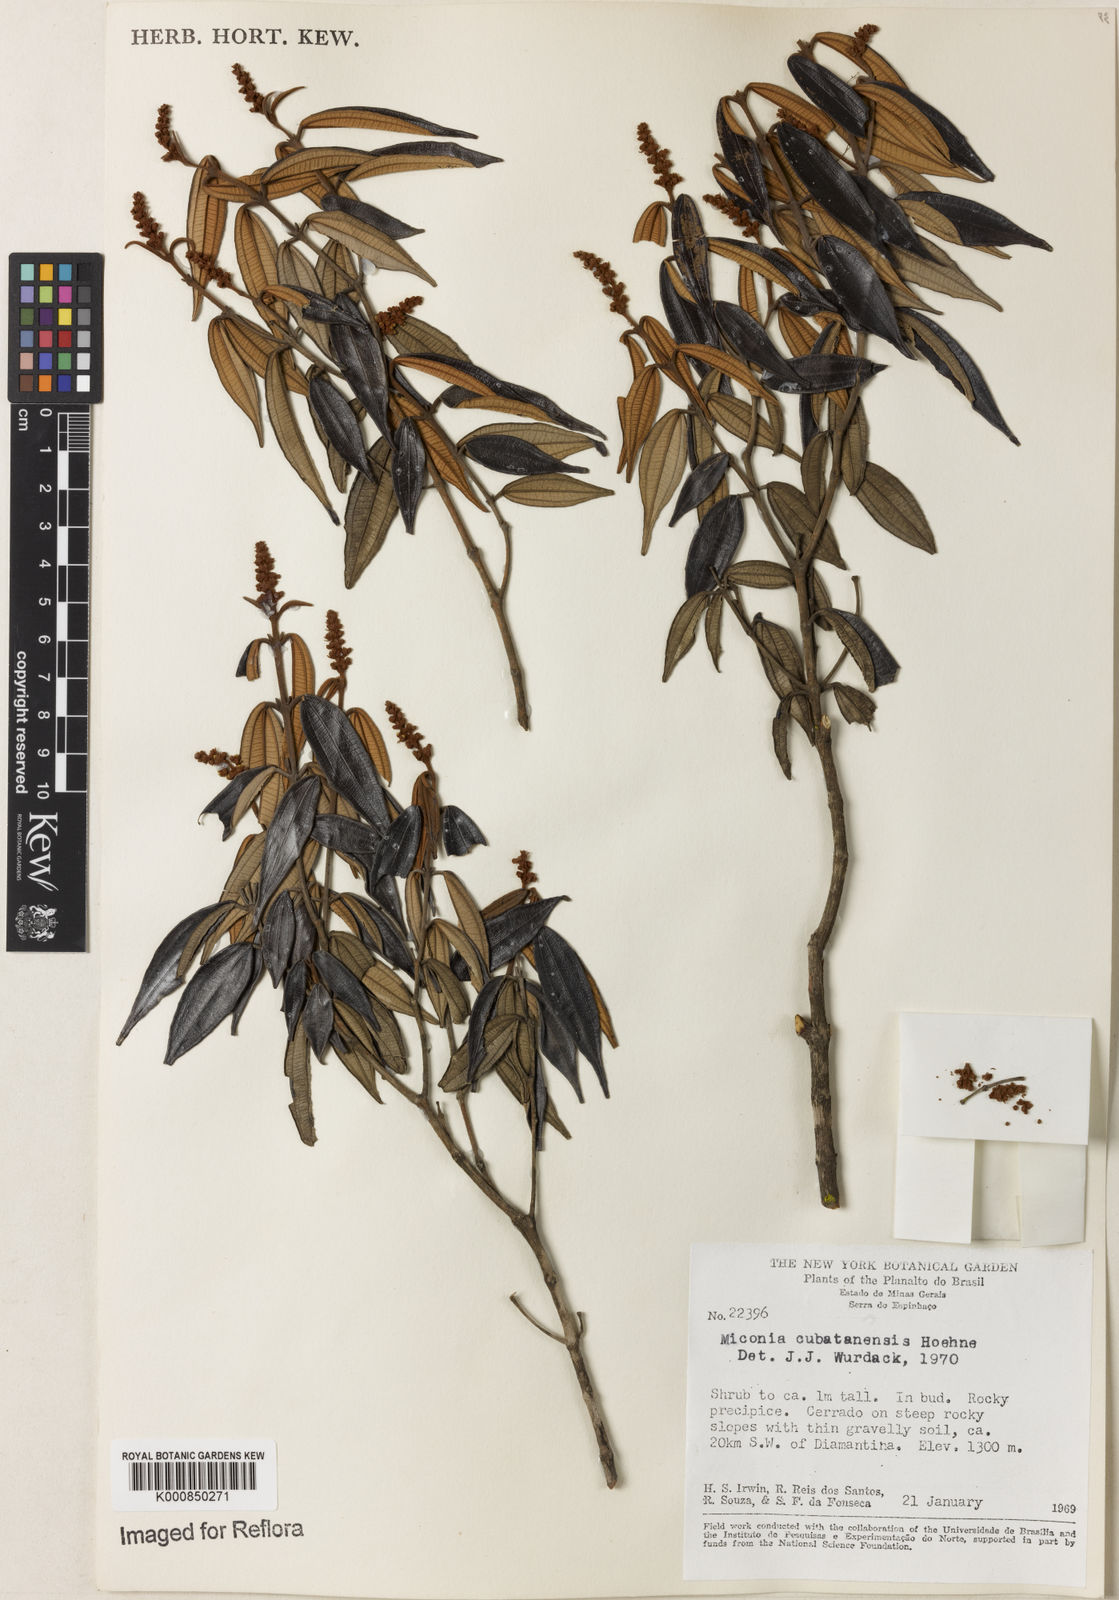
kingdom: Plantae
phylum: Tracheophyta
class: Magnoliopsida
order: Myrtales
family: Melastomataceae
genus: Miconia
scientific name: Miconia cubatanensis
